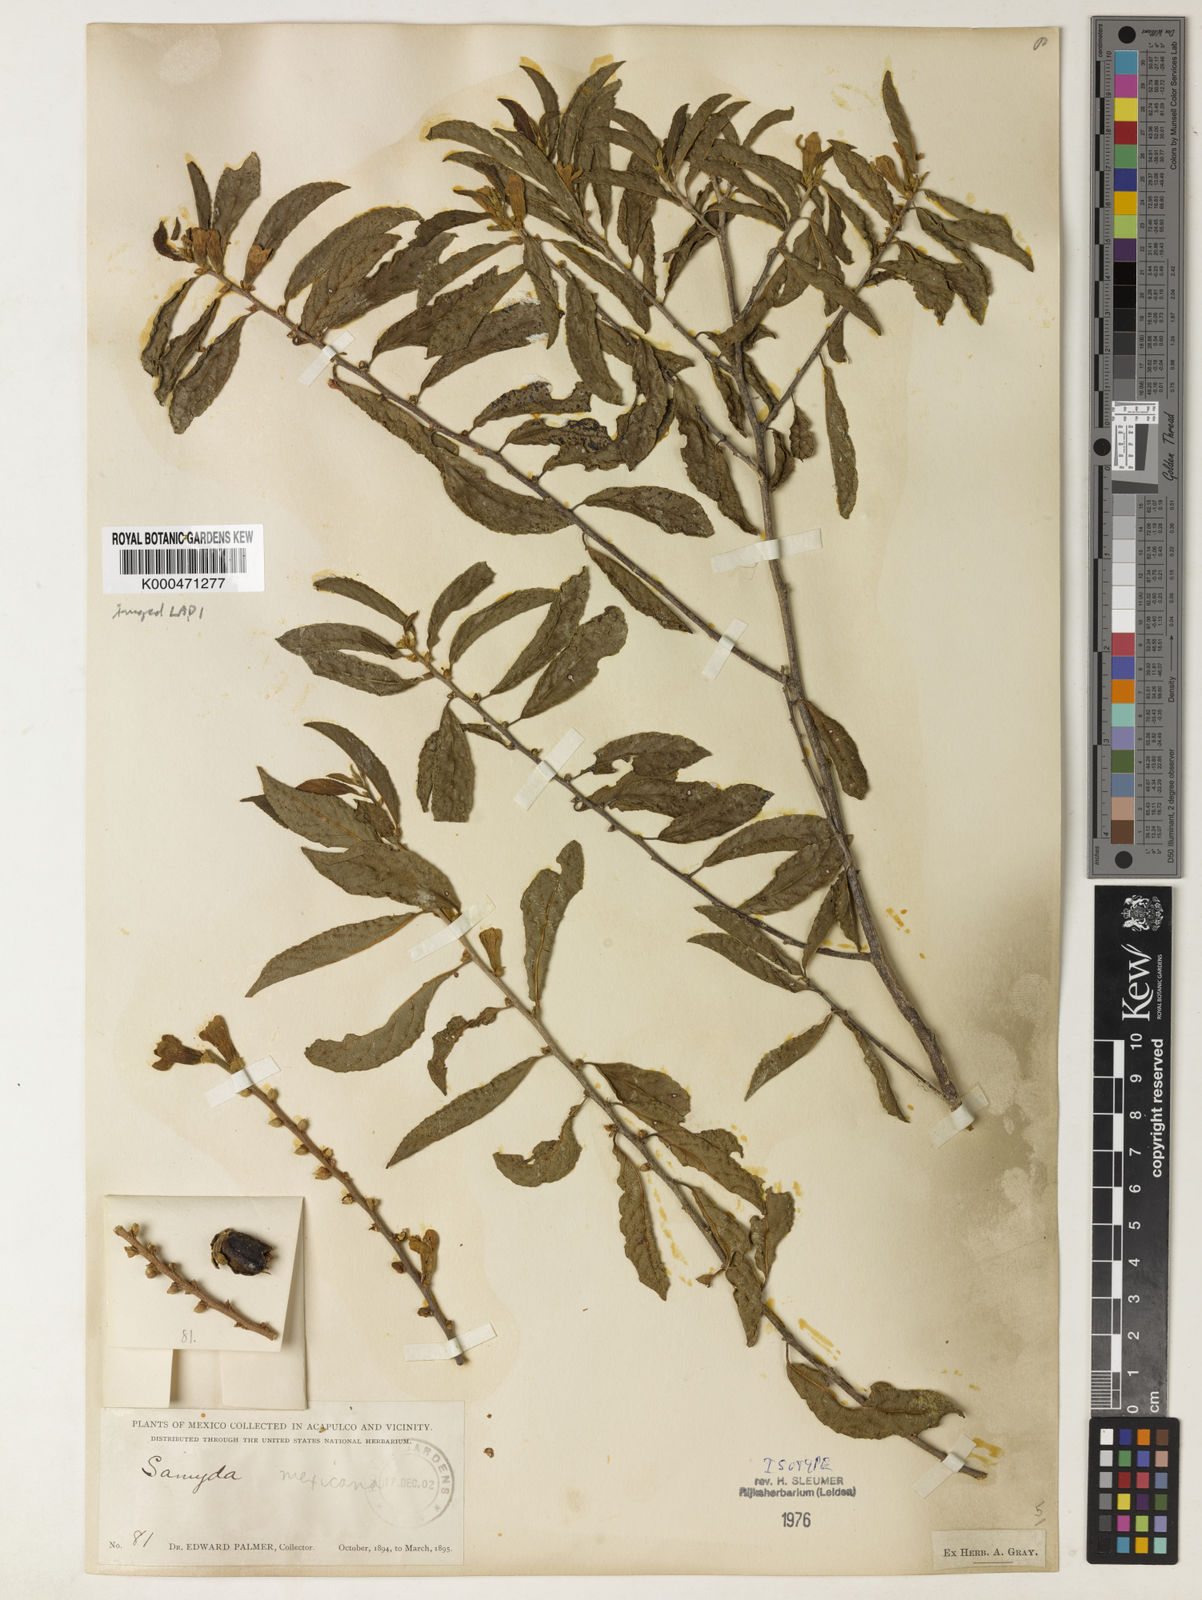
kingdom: Plantae
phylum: Tracheophyta
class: Magnoliopsida
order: Malpighiales
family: Salicaceae
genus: Casearia
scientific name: Casearia mexicana
